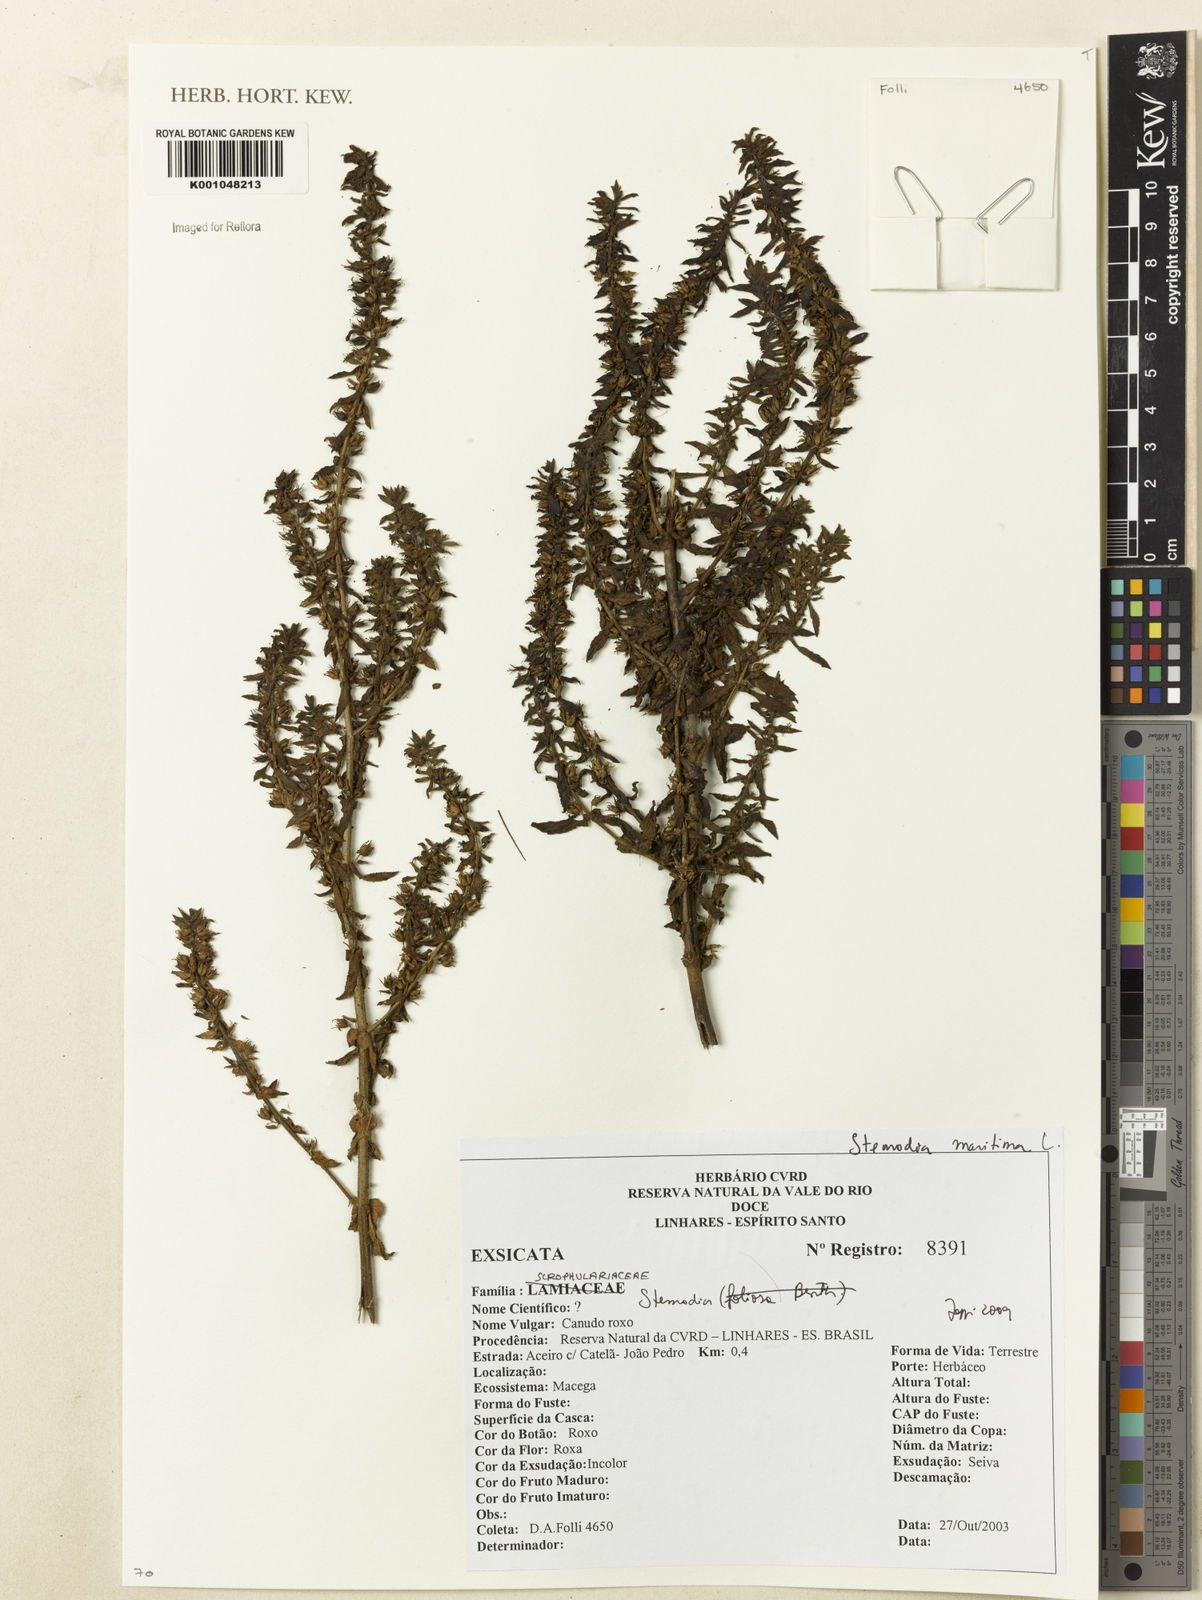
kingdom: Plantae
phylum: Tracheophyta
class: Magnoliopsida
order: Lamiales
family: Plantaginaceae
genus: Stemodia
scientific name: Stemodia maritima
